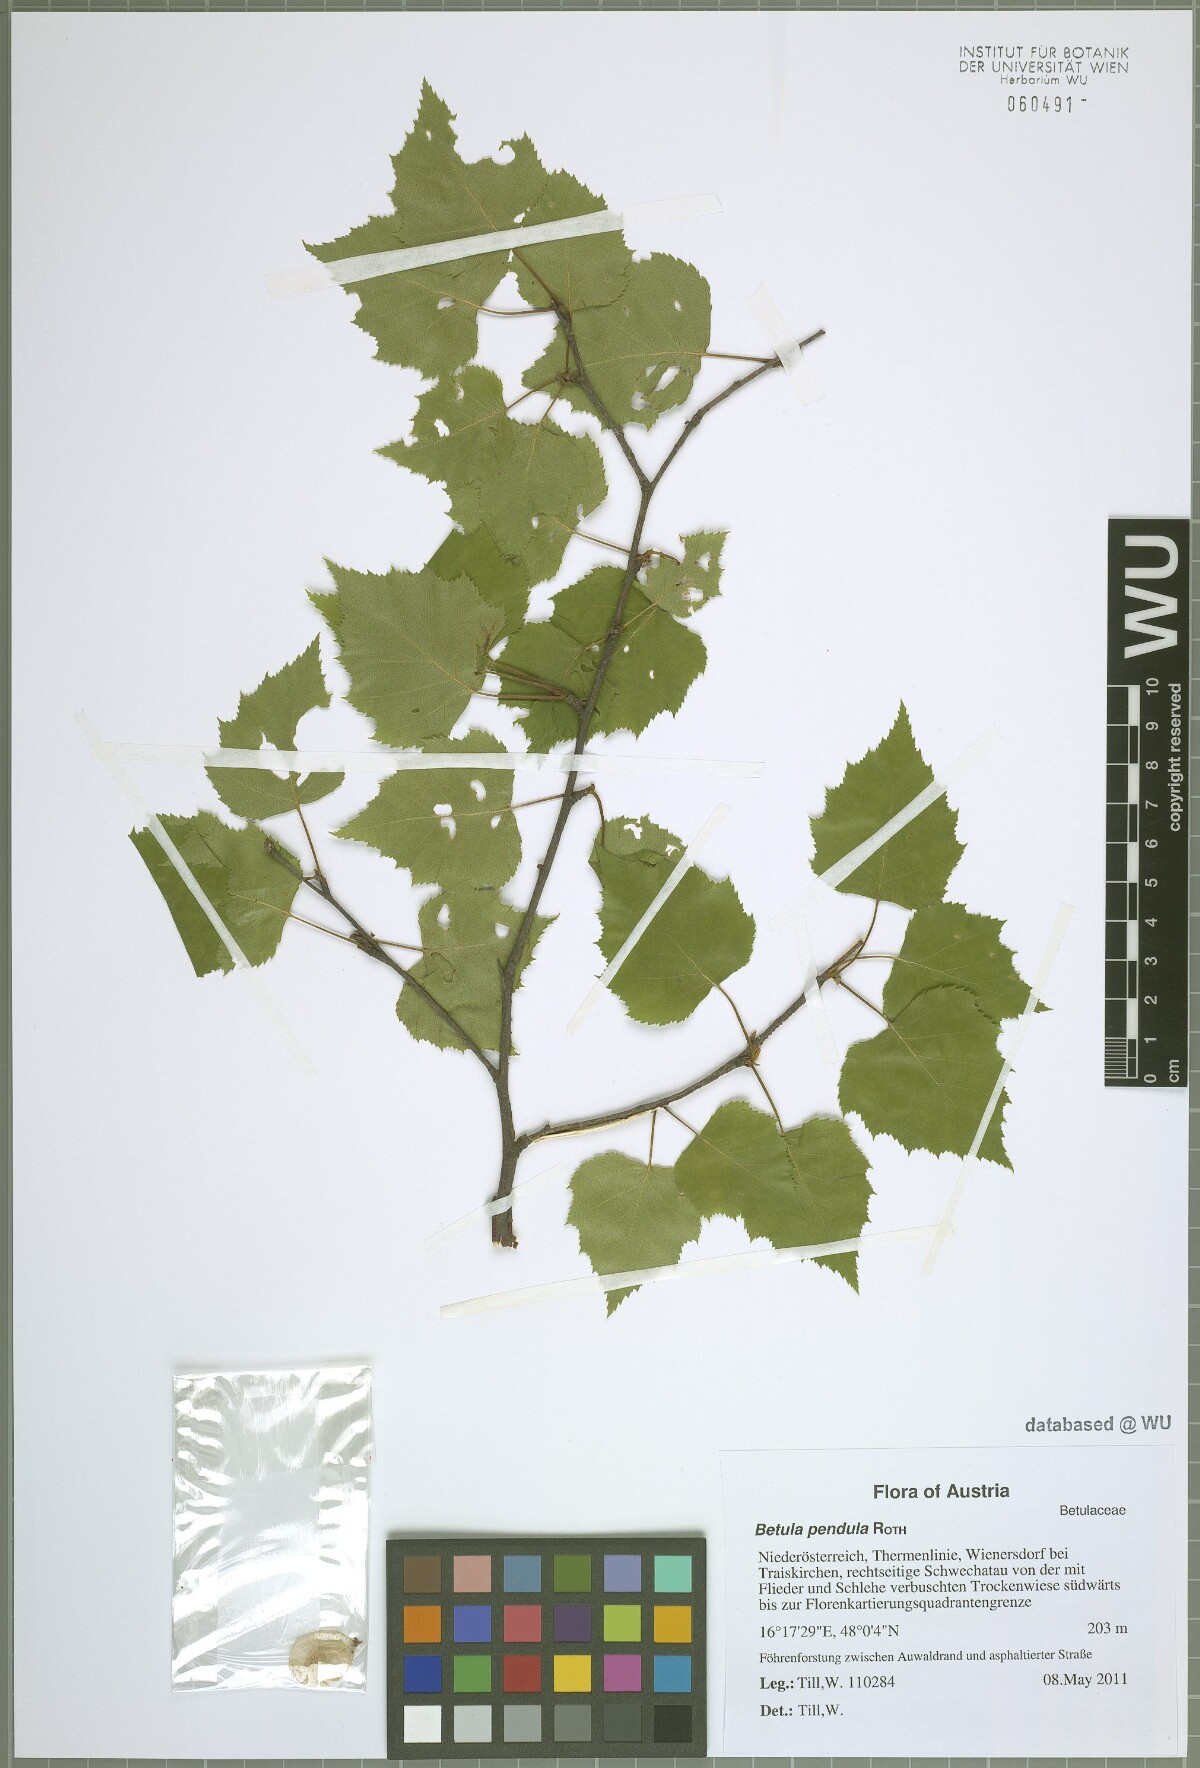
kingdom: Plantae
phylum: Tracheophyta
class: Magnoliopsida
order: Fagales
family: Betulaceae
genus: Betula
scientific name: Betula pendula
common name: Silver birch
